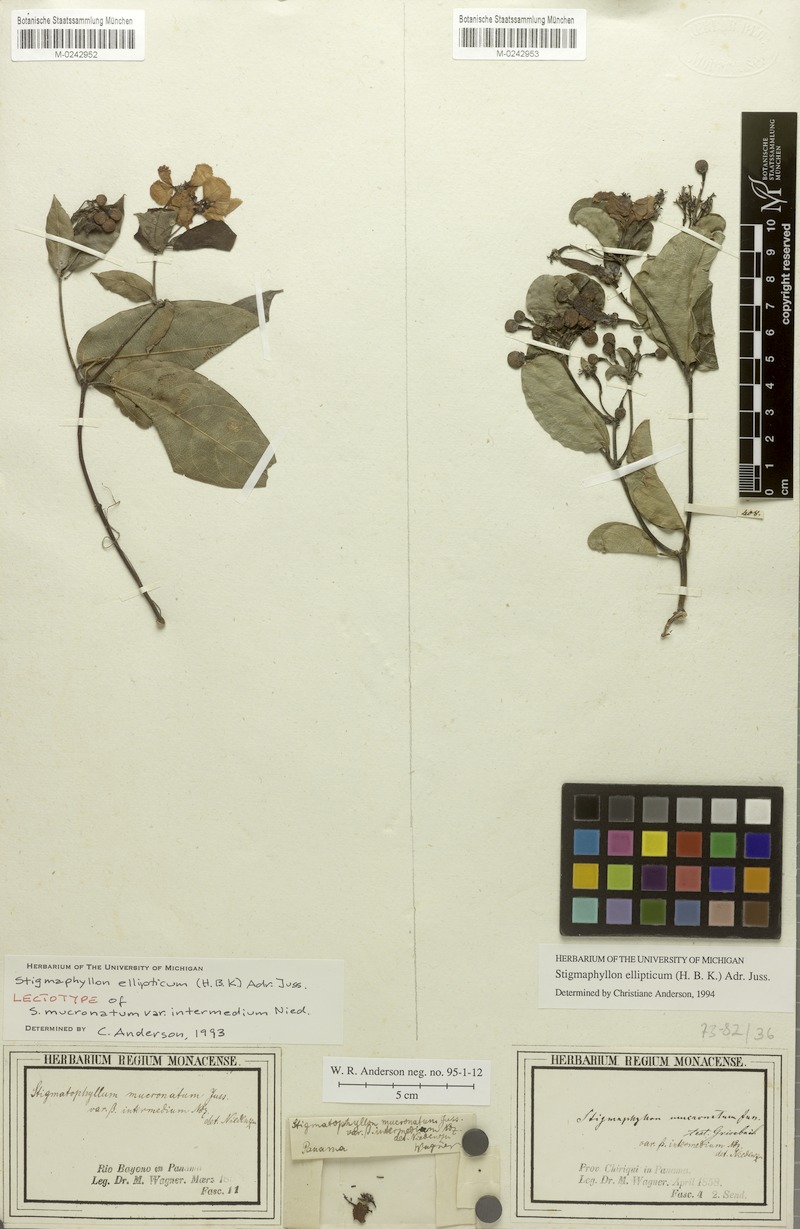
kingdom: Plantae
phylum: Tracheophyta
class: Magnoliopsida
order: Malpighiales
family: Malpighiaceae
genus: Stigmaphyllon
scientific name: Stigmaphyllon ellipticum
